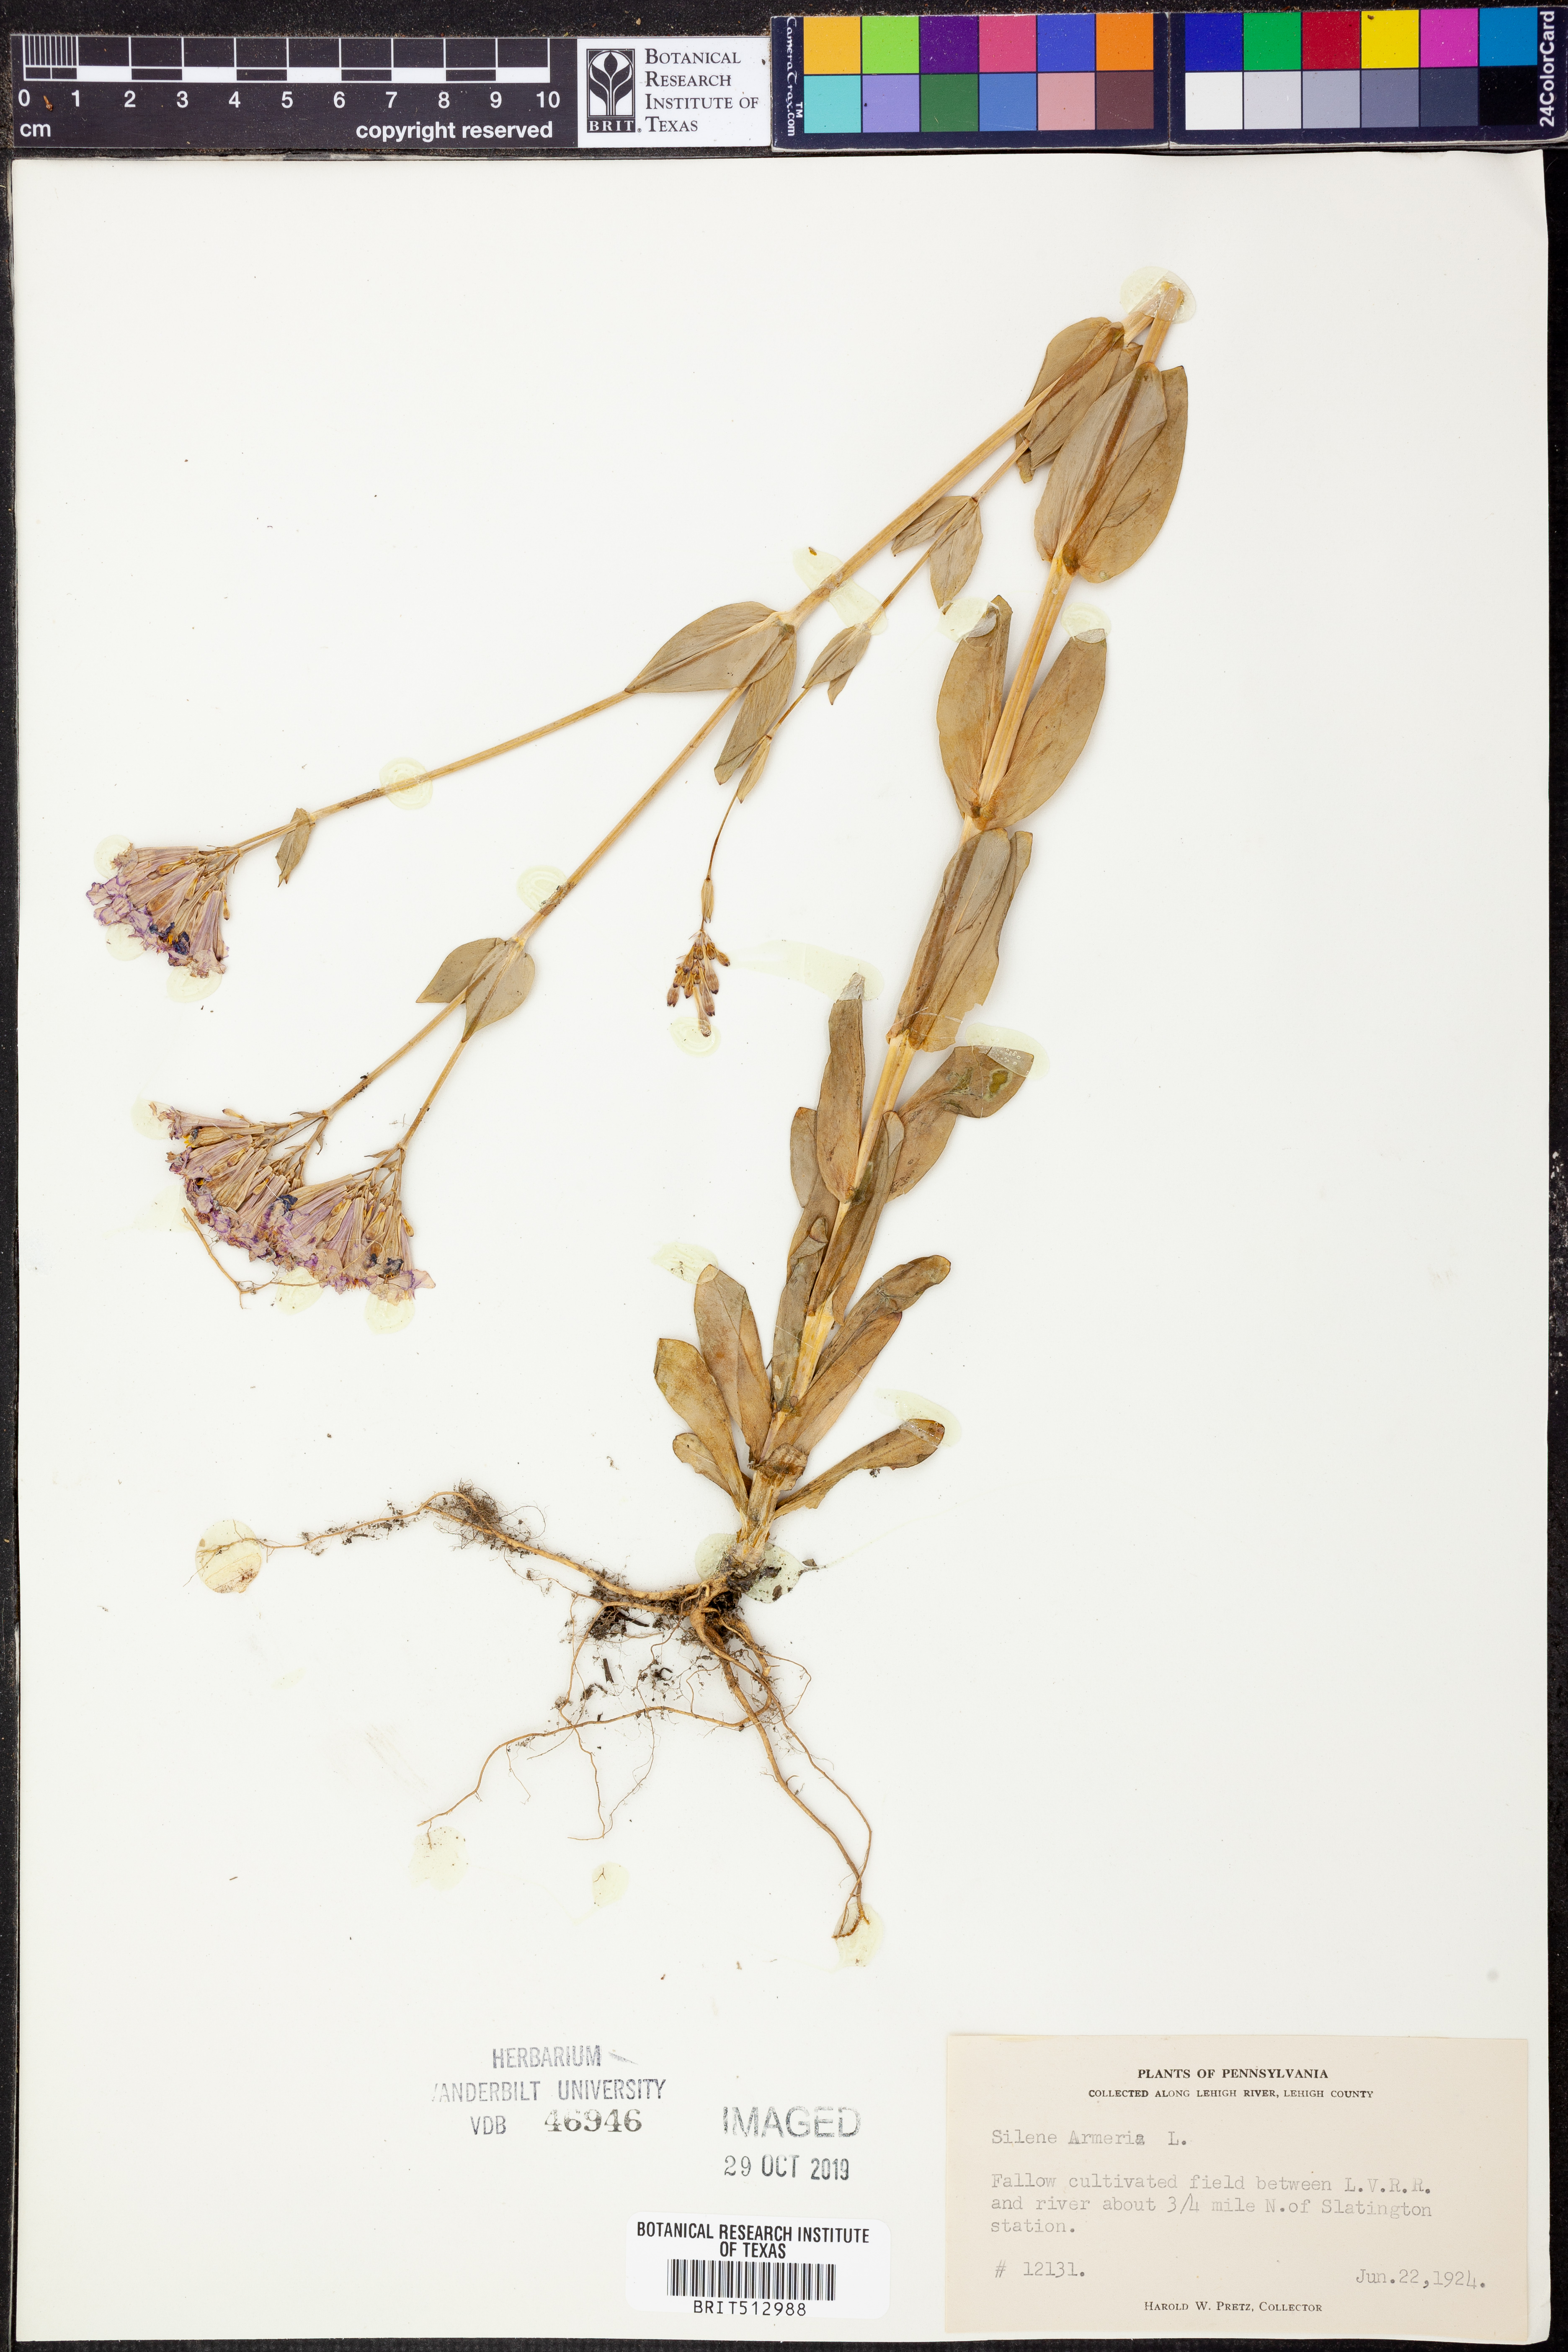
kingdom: Plantae
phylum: Tracheophyta
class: Magnoliopsida
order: Caryophyllales
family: Caryophyllaceae
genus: Atocion
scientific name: Atocion armeria
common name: Sweet william catchfly
